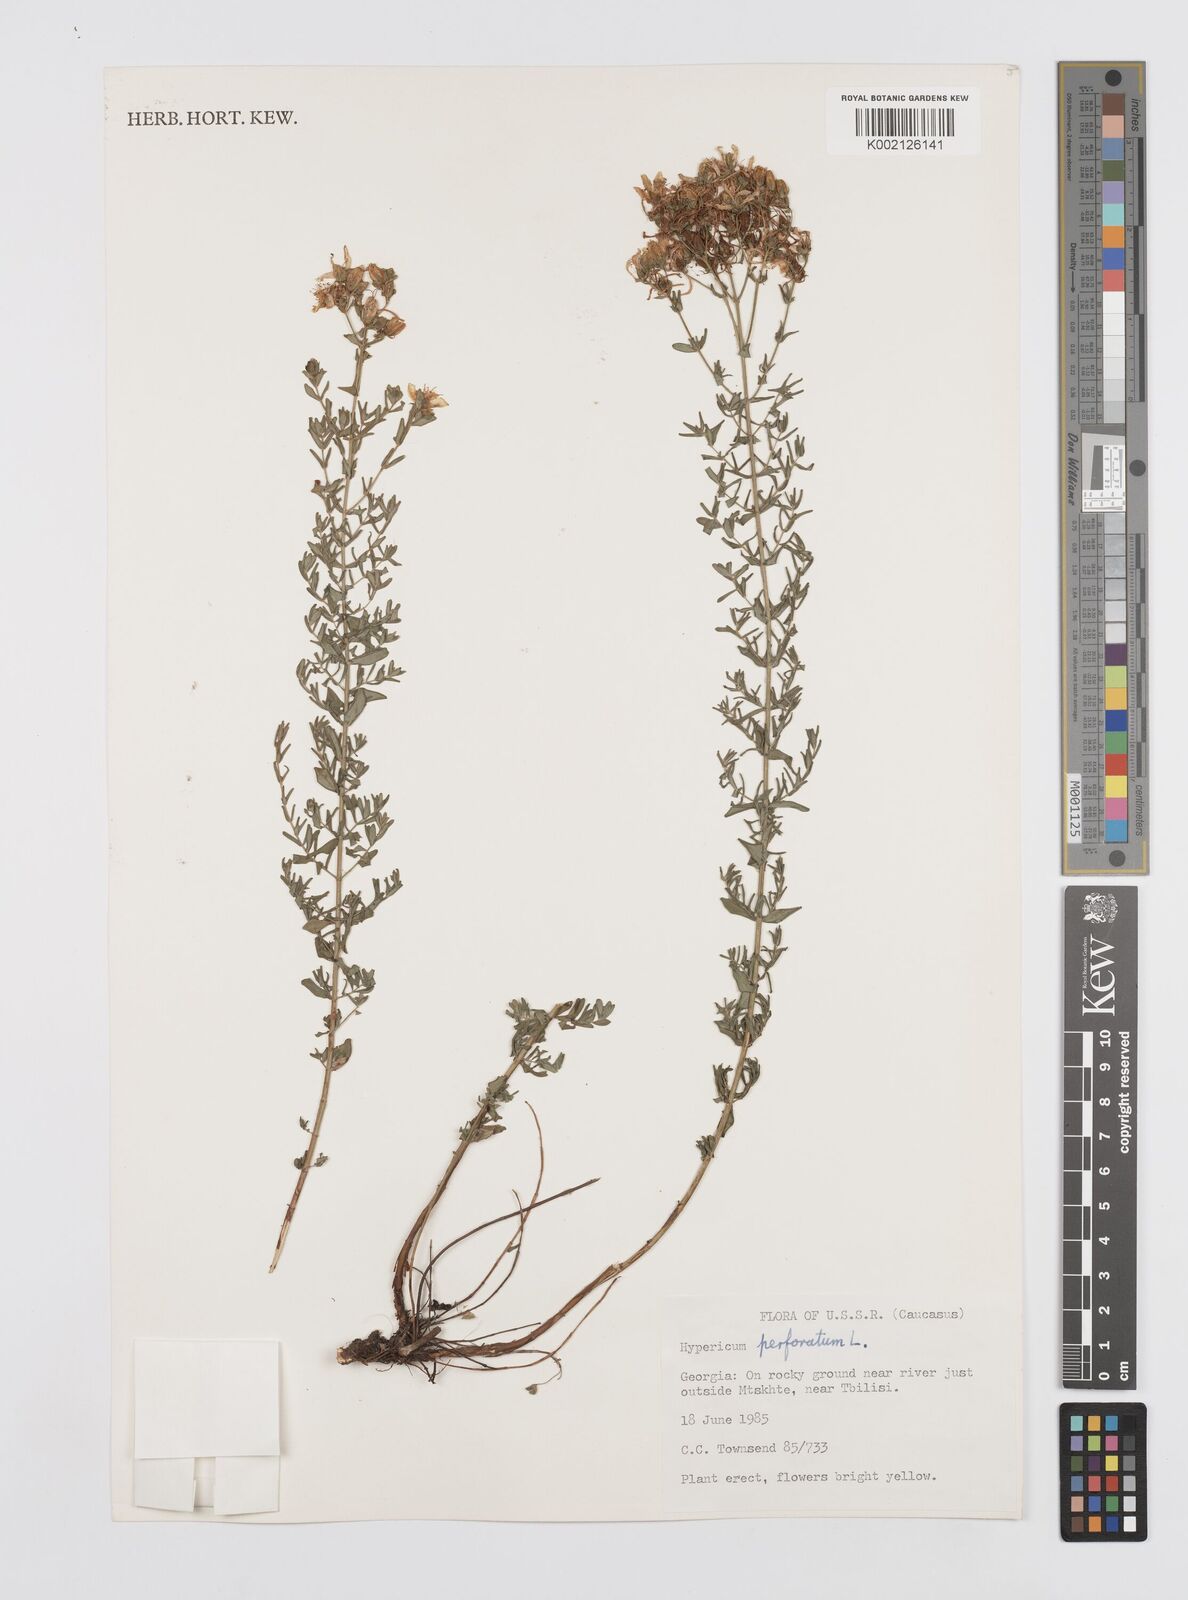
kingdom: Plantae
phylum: Tracheophyta
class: Magnoliopsida
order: Malpighiales
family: Hypericaceae
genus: Hypericum
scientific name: Hypericum perfoliatum
